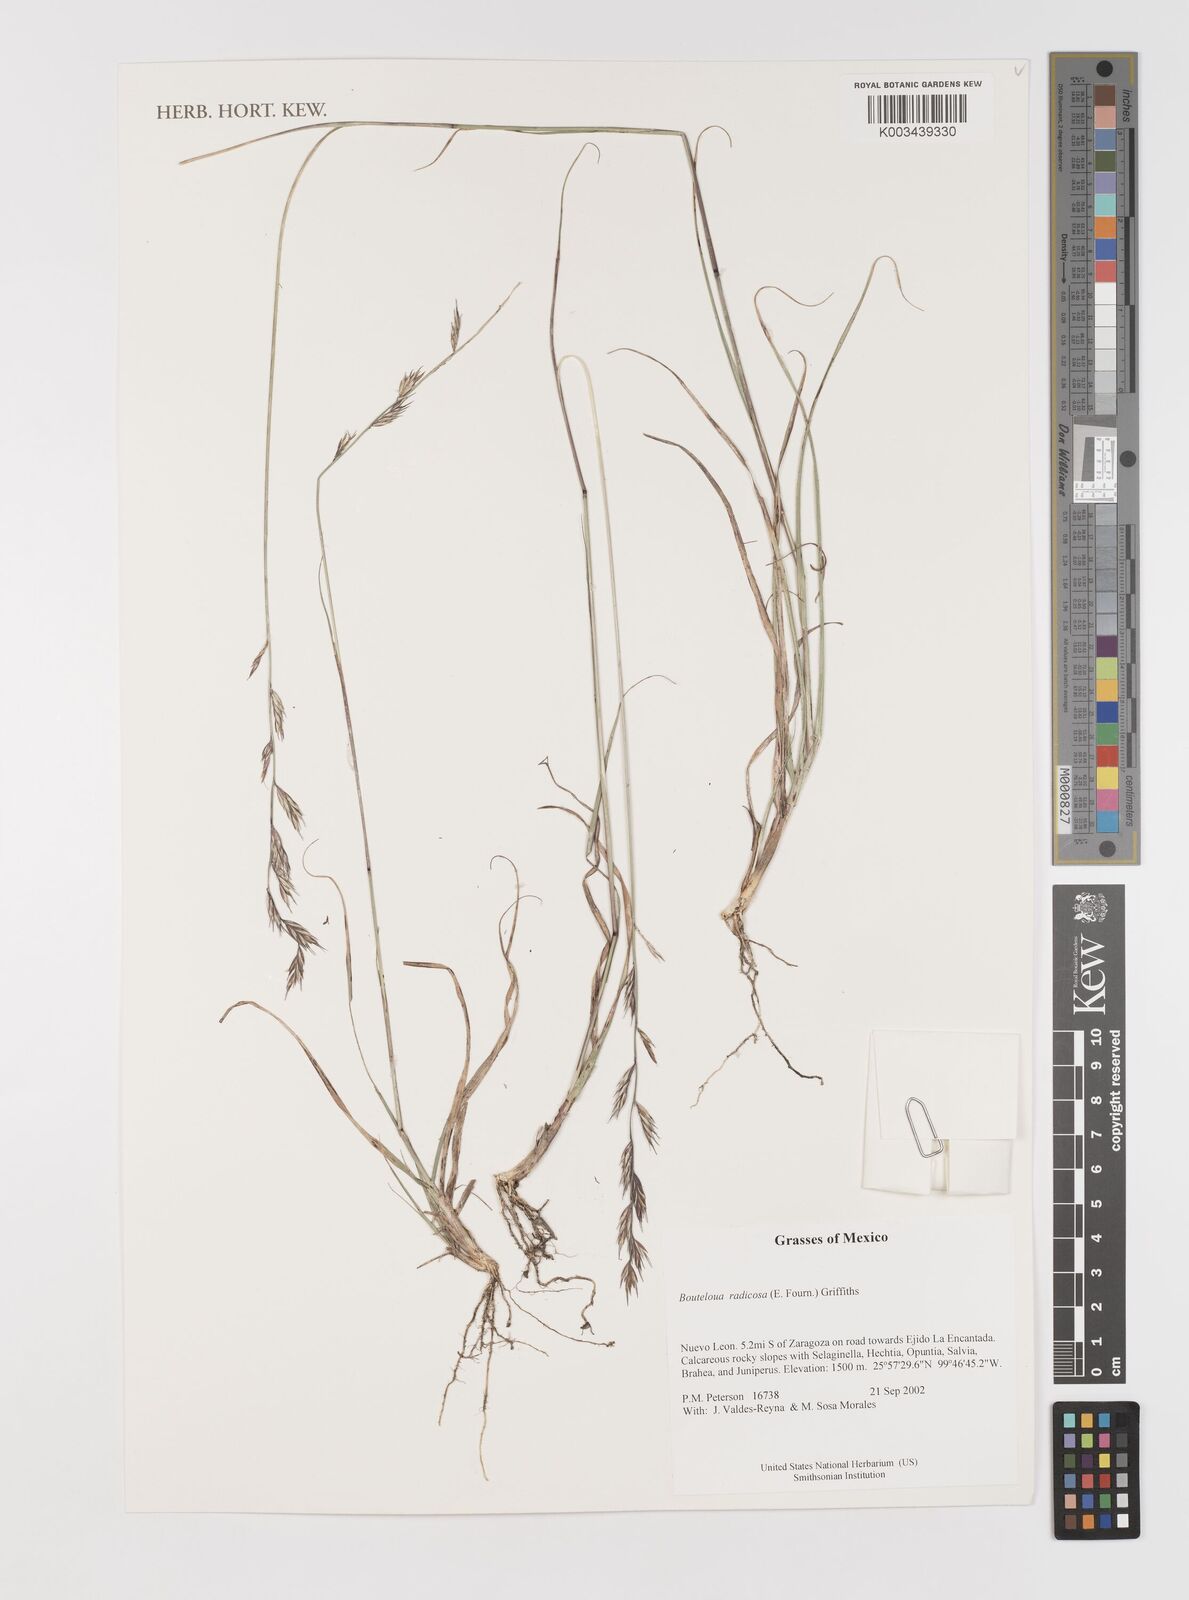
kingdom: Plantae
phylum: Tracheophyta
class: Liliopsida
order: Poales
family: Poaceae
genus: Bouteloua
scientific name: Bouteloua radicosa
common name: Purple grama
